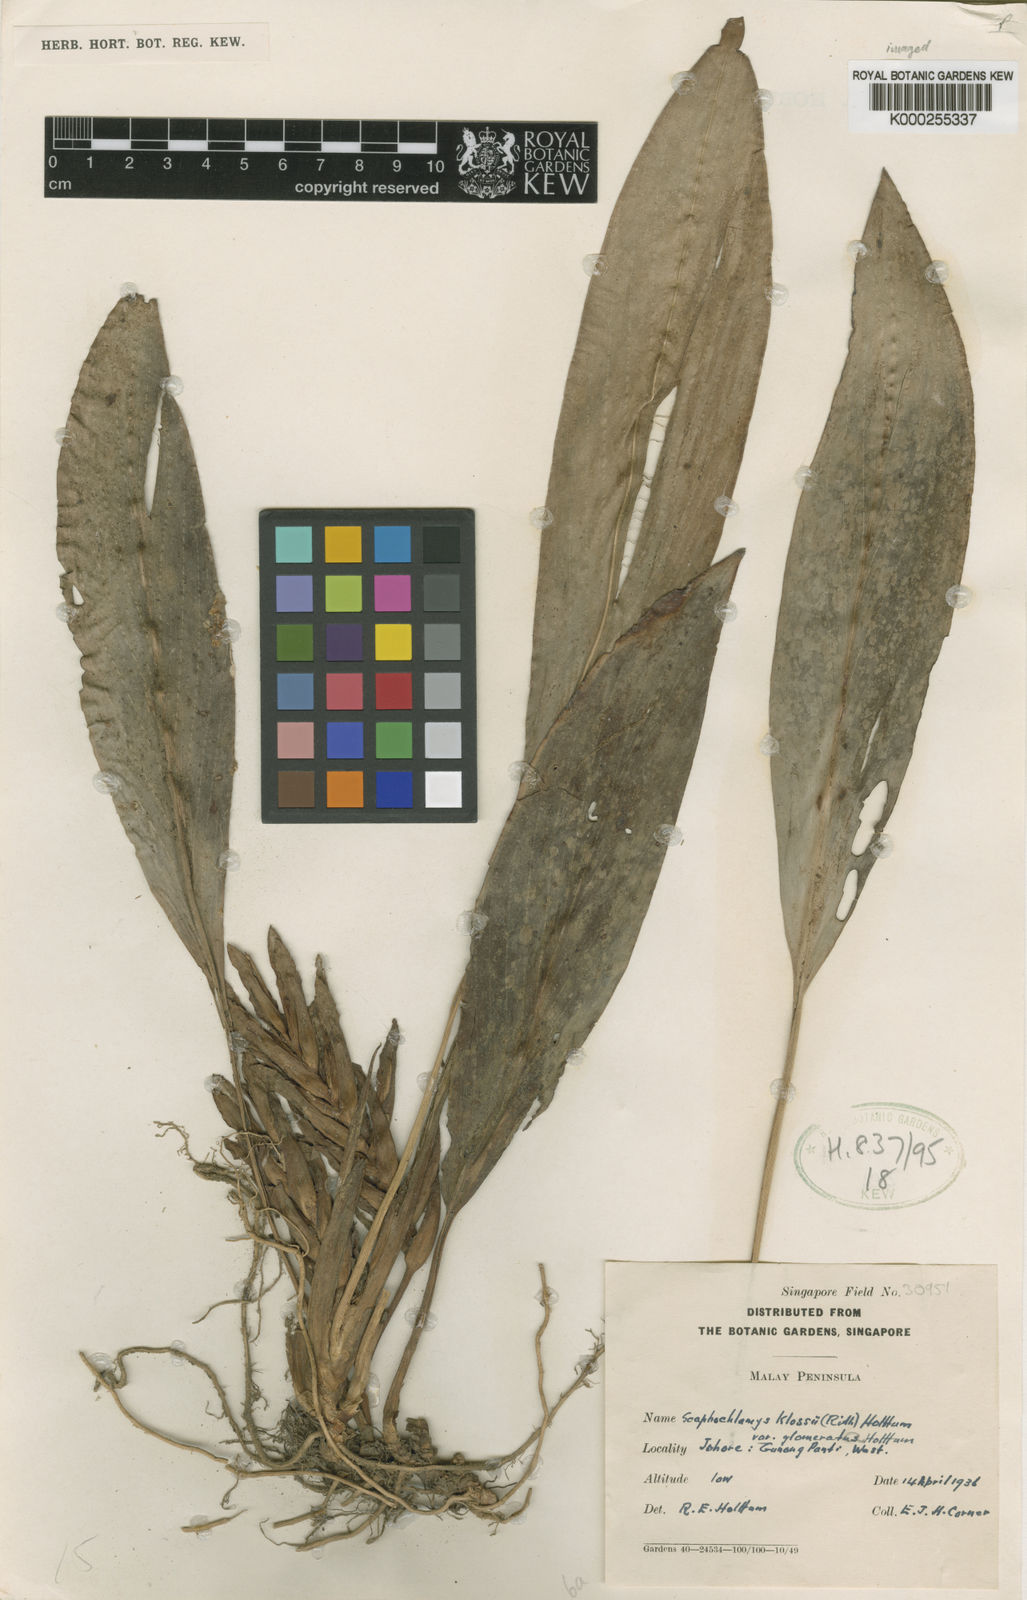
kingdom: Plantae
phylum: Tracheophyta
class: Liliopsida
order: Zingiberales
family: Zingiberaceae
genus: Scaphochlamys
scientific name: Scaphochlamys klossii
